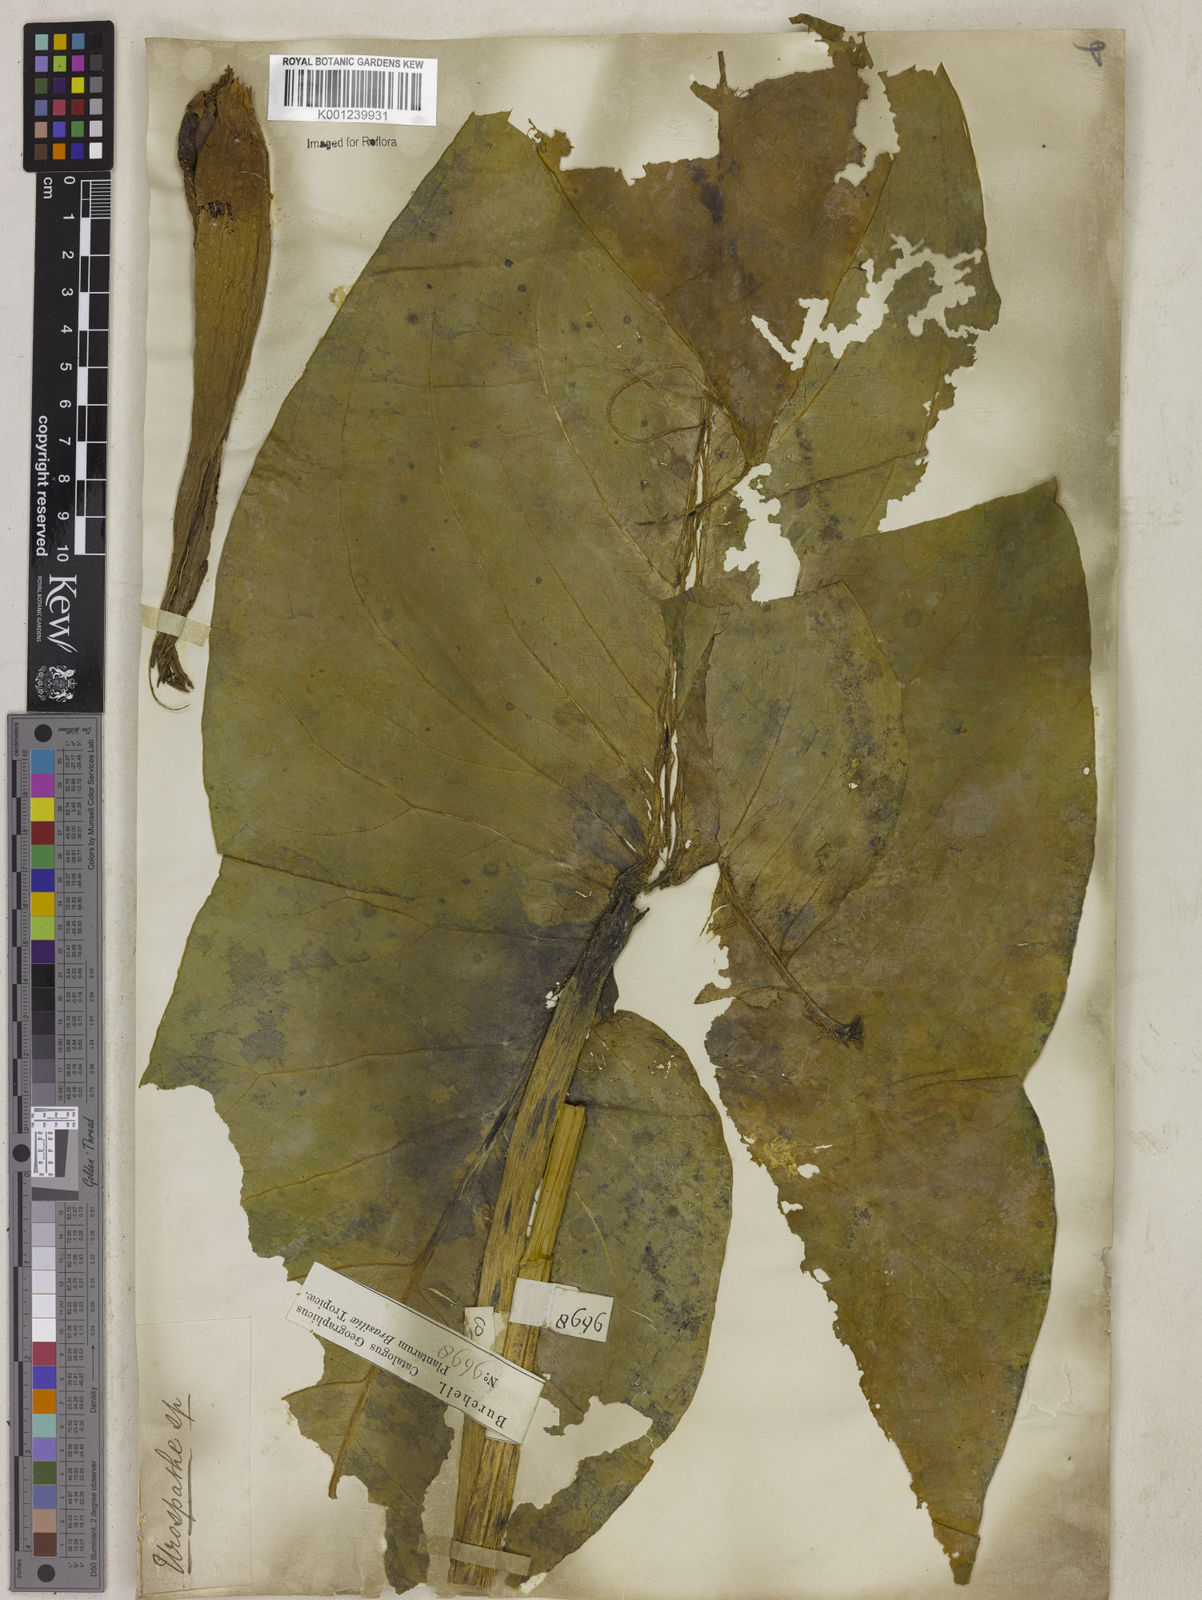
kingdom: Plantae
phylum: Tracheophyta
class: Liliopsida
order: Alismatales
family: Araceae
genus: Urospatha
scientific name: Urospatha sagittifolia
